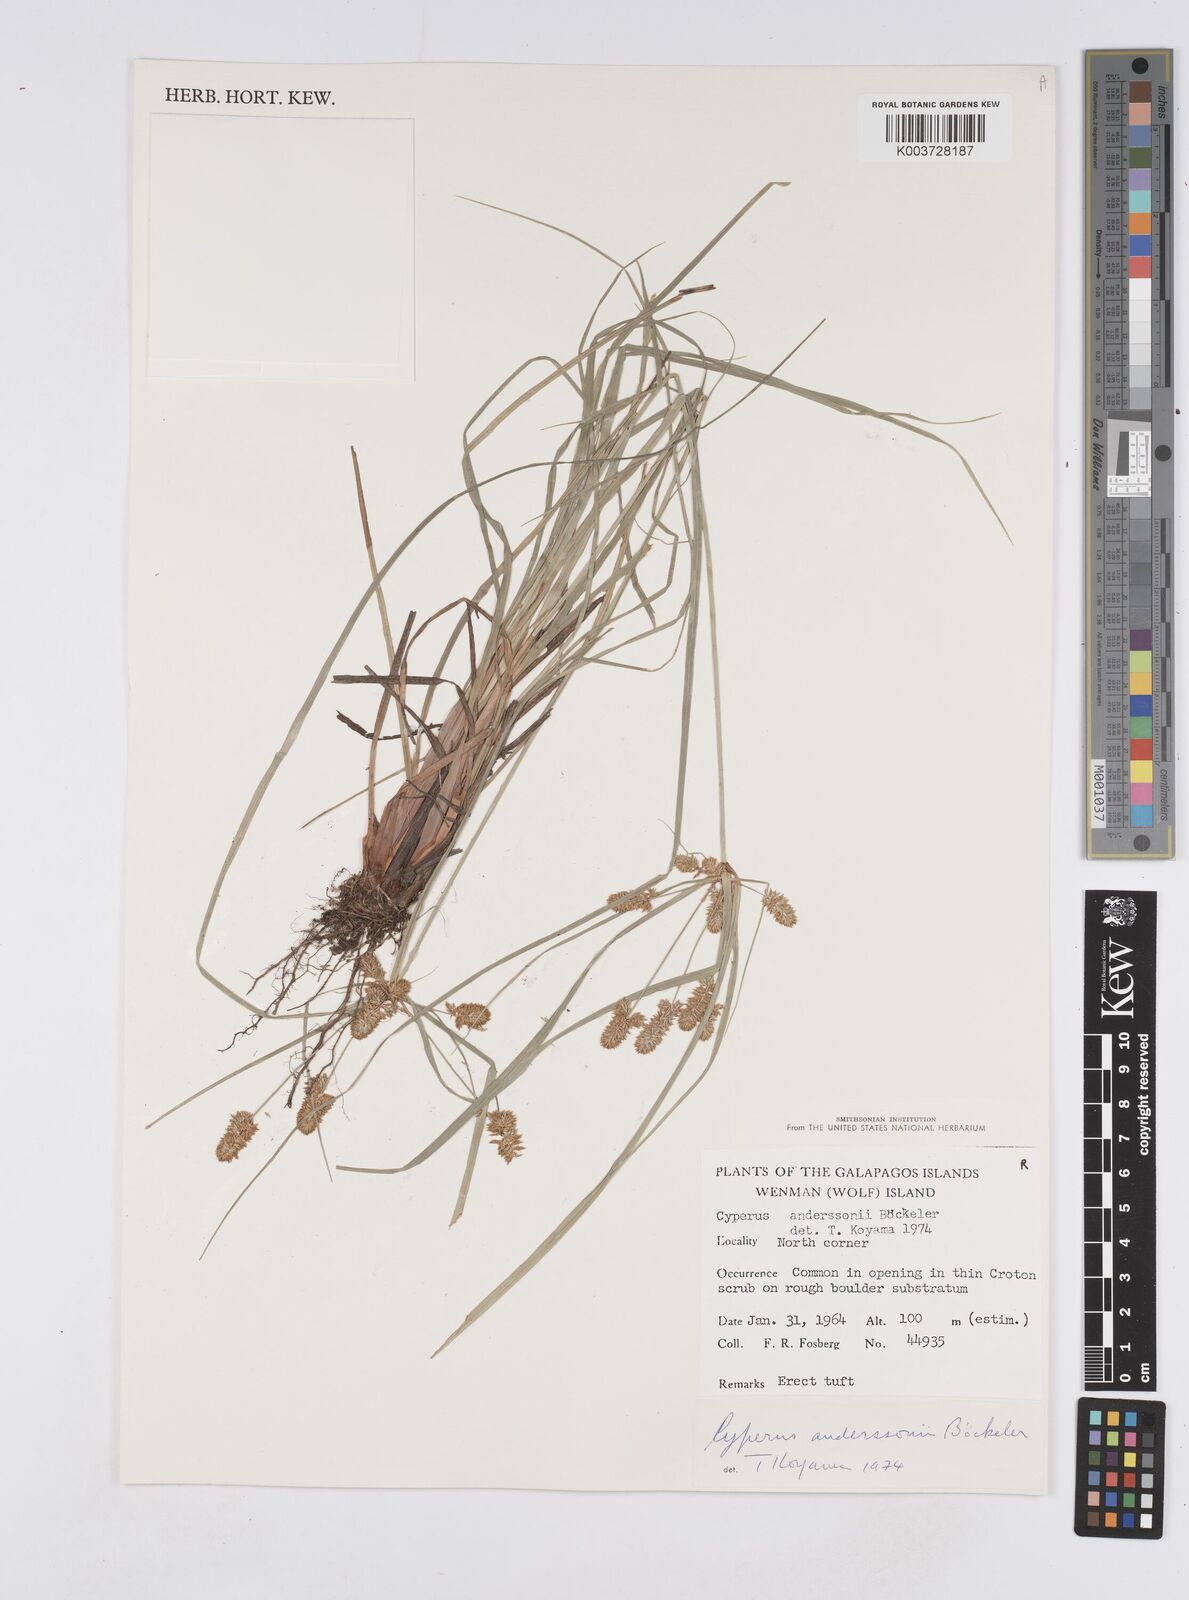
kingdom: Plantae
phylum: Tracheophyta
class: Liliopsida
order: Poales
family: Cyperaceae
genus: Cyperus
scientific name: Cyperus anderssonii
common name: Andersson's sedge
